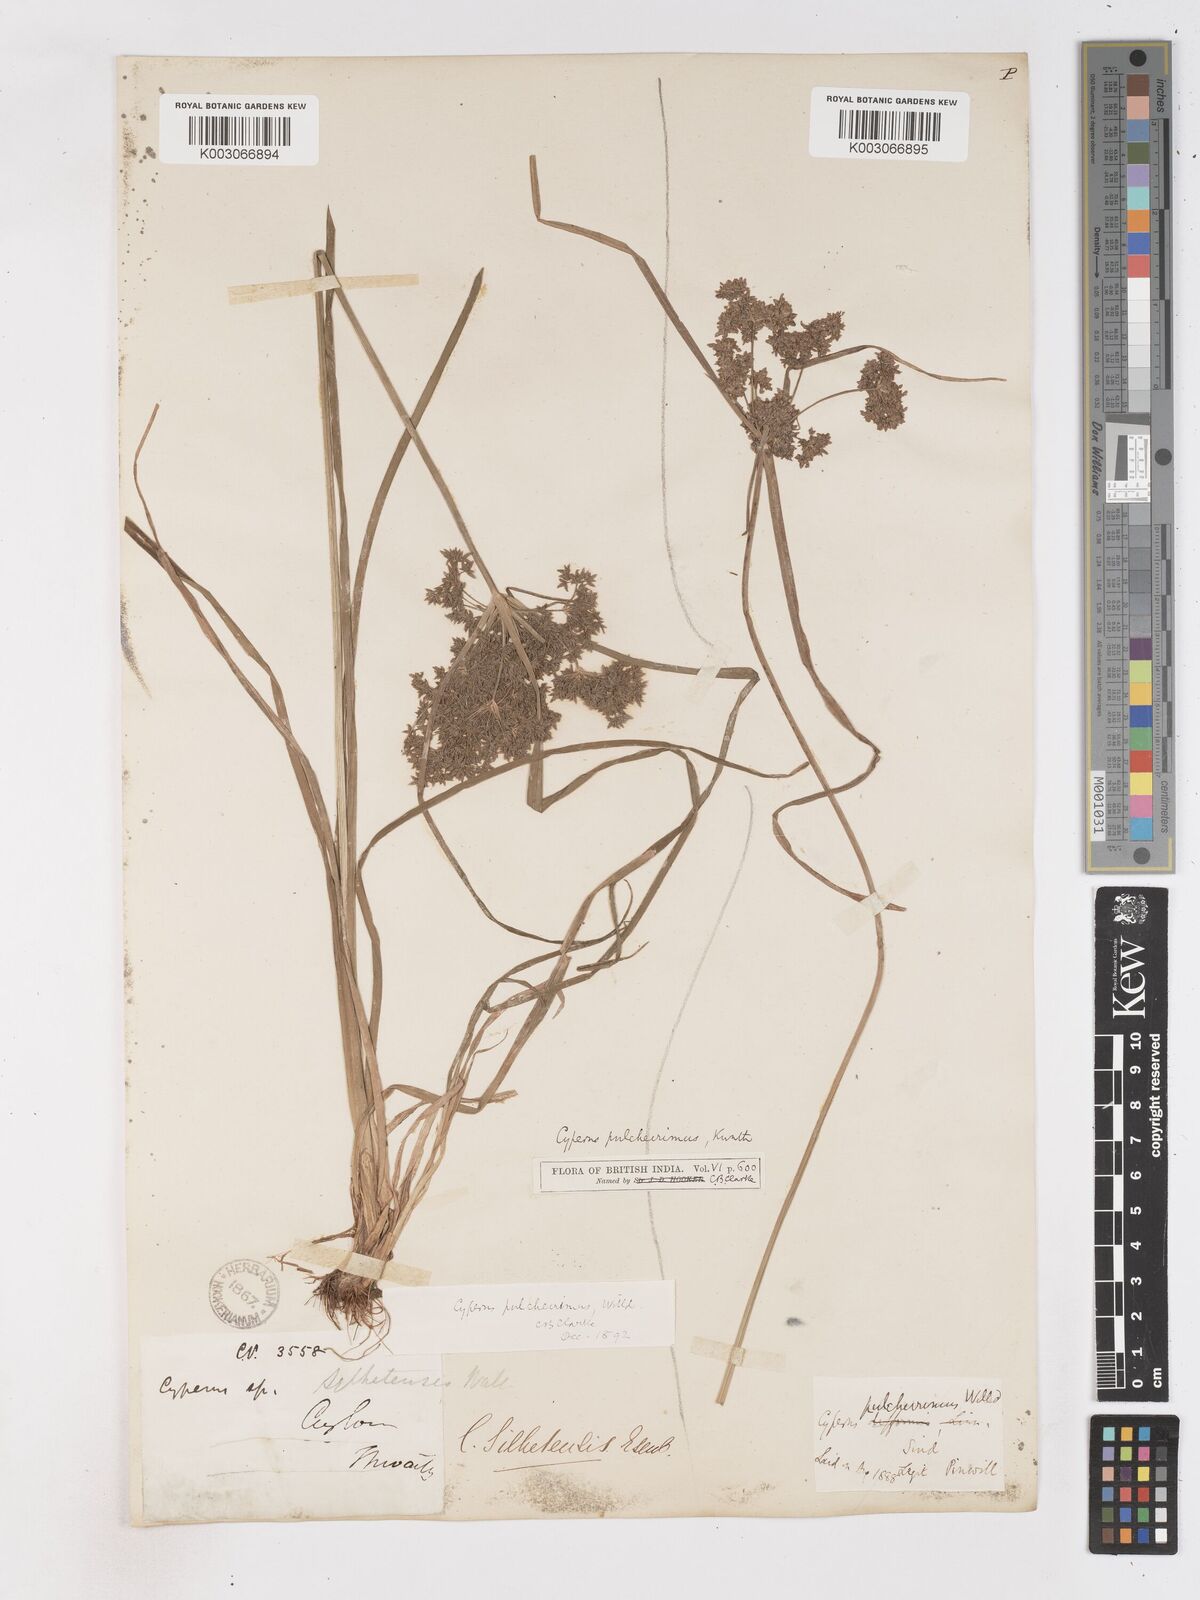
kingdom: Plantae
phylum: Tracheophyta
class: Liliopsida
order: Poales
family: Cyperaceae
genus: Cyperus
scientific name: Cyperus pulcherrimus
